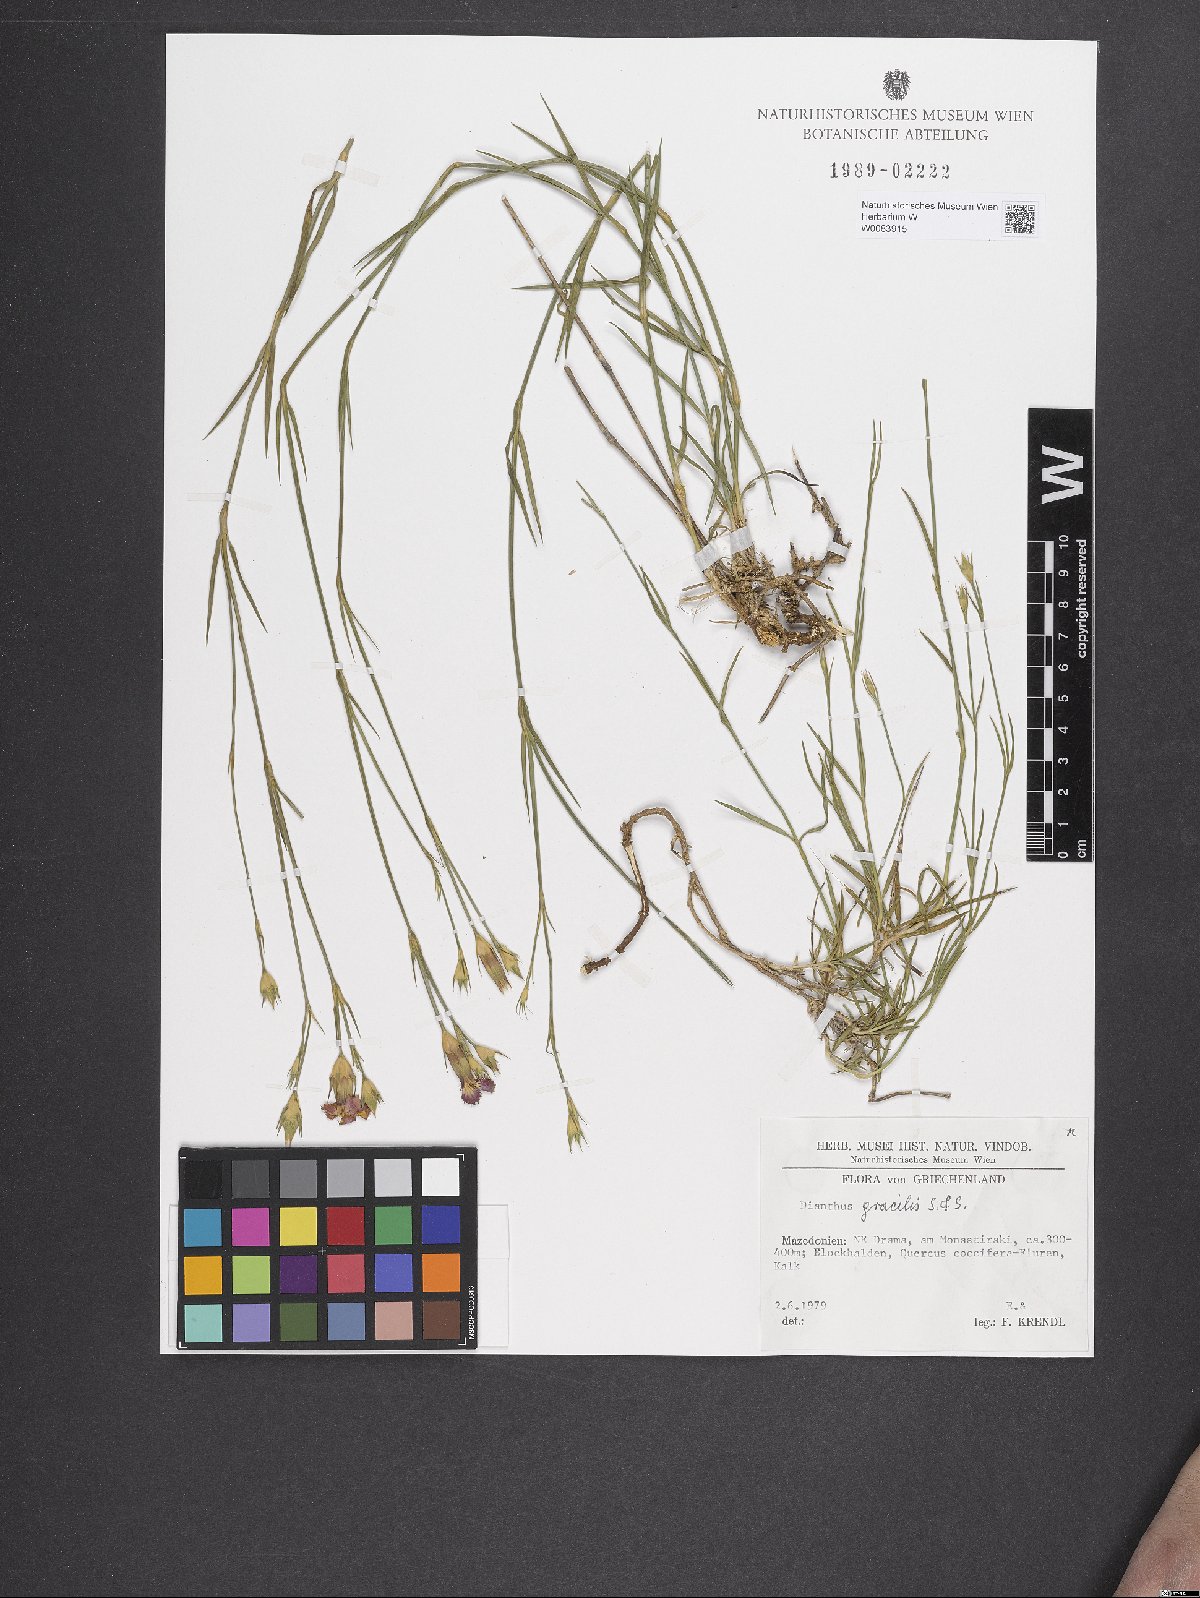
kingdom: Plantae
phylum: Tracheophyta
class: Magnoliopsida
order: Caryophyllales
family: Caryophyllaceae
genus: Dianthus
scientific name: Dianthus gracilis
